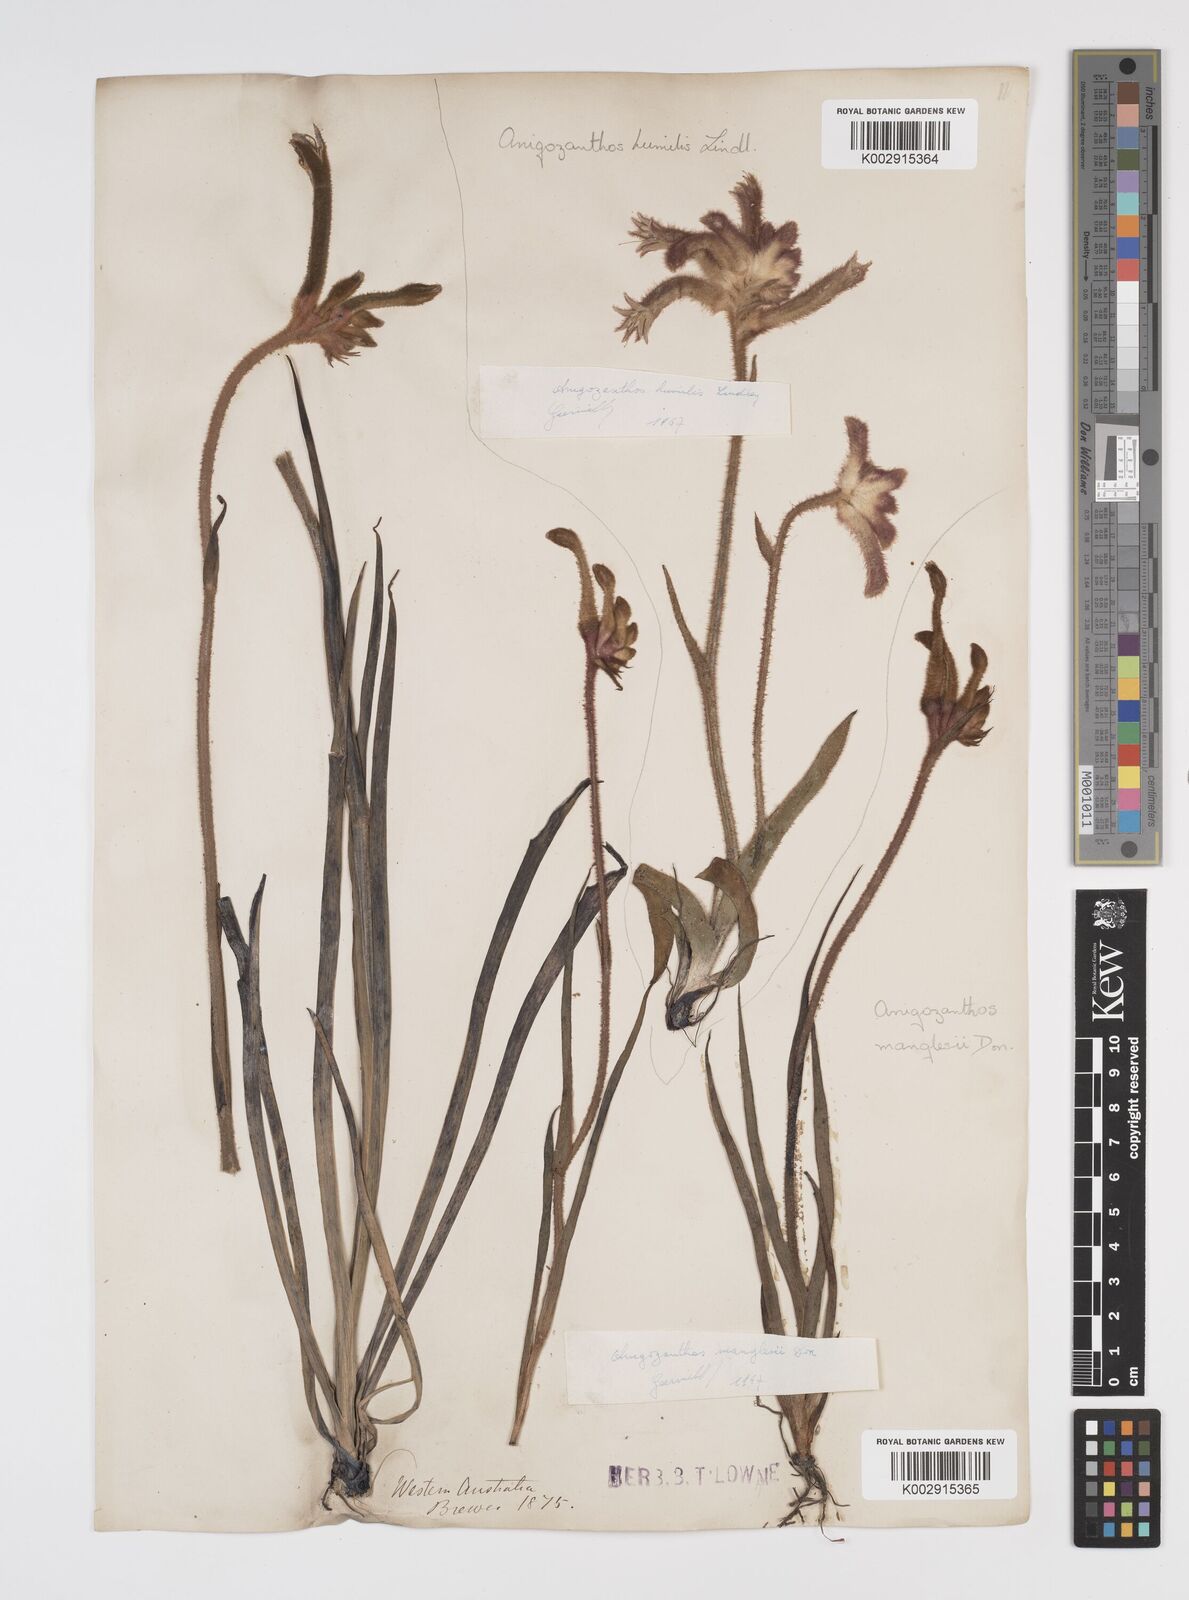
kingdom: Plantae
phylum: Tracheophyta
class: Liliopsida
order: Commelinales
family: Haemodoraceae
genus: Anigozanthos
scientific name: Anigozanthos manglesii
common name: Mangles's kangaroo-paw
